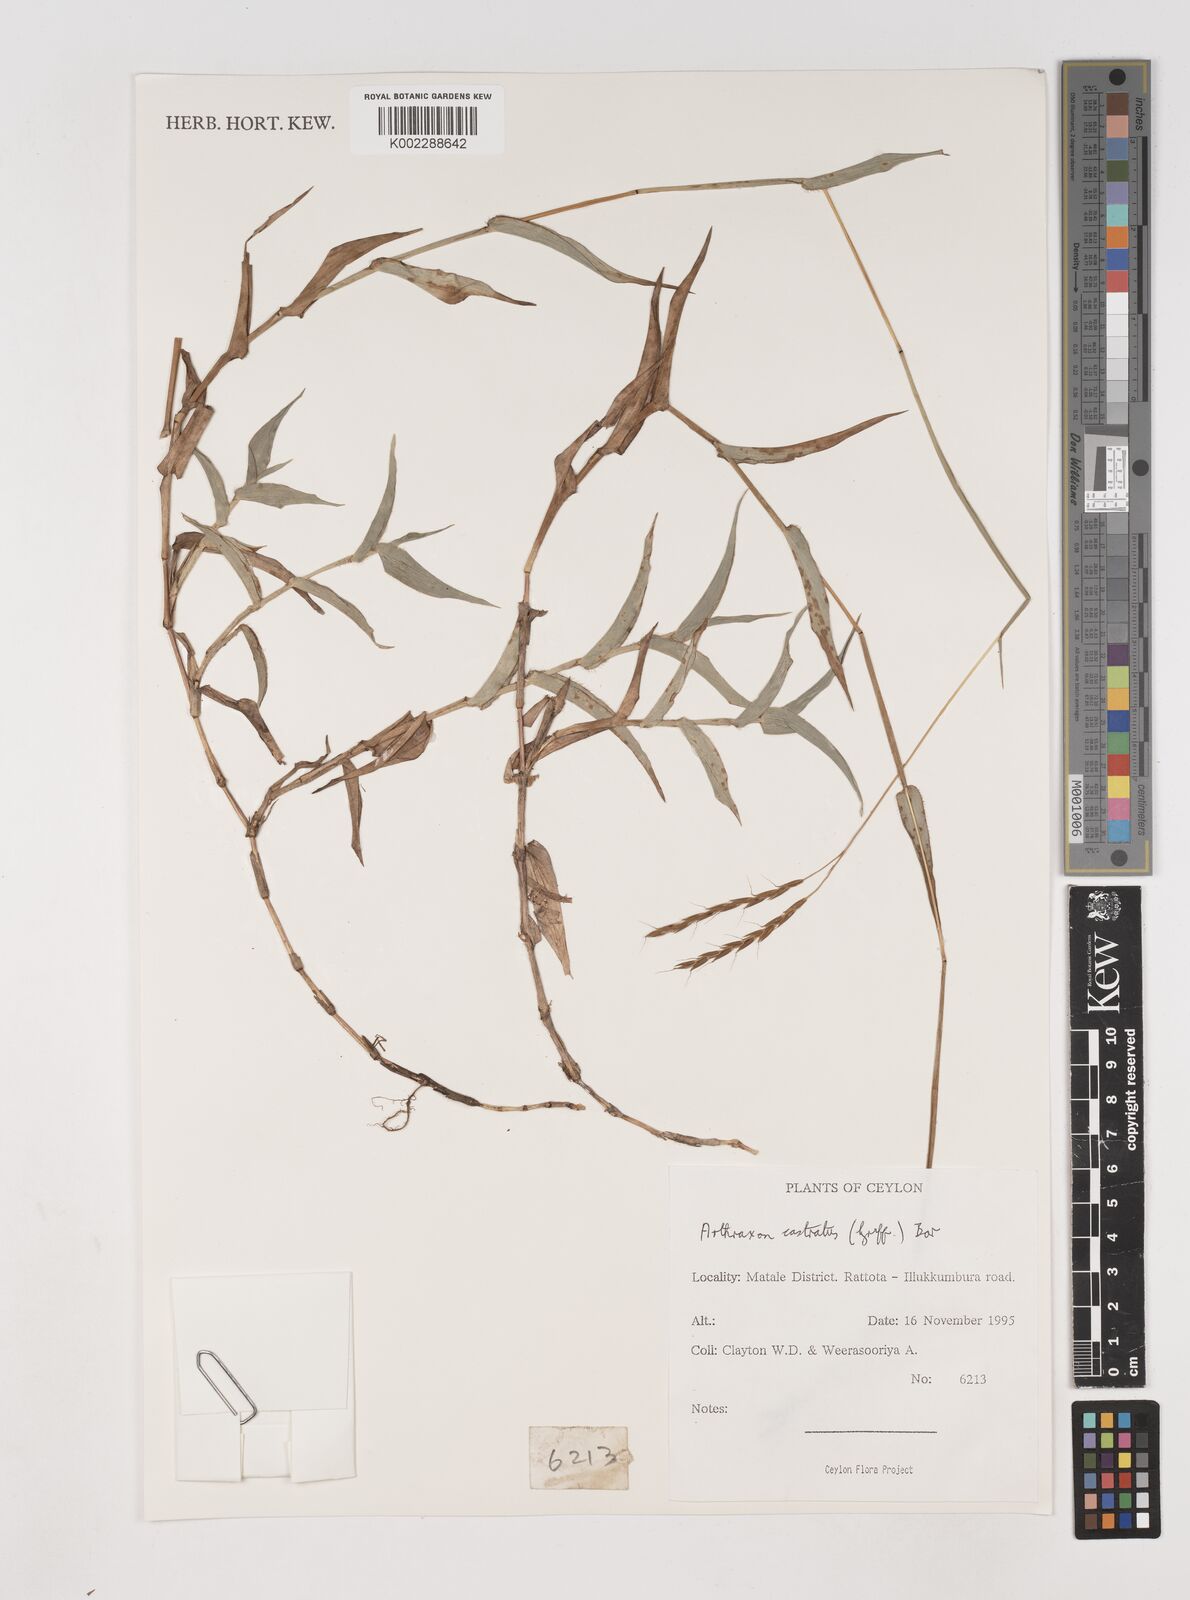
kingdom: Plantae
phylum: Tracheophyta
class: Liliopsida
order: Poales
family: Poaceae
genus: Arthraxon
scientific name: Arthraxon castratus
